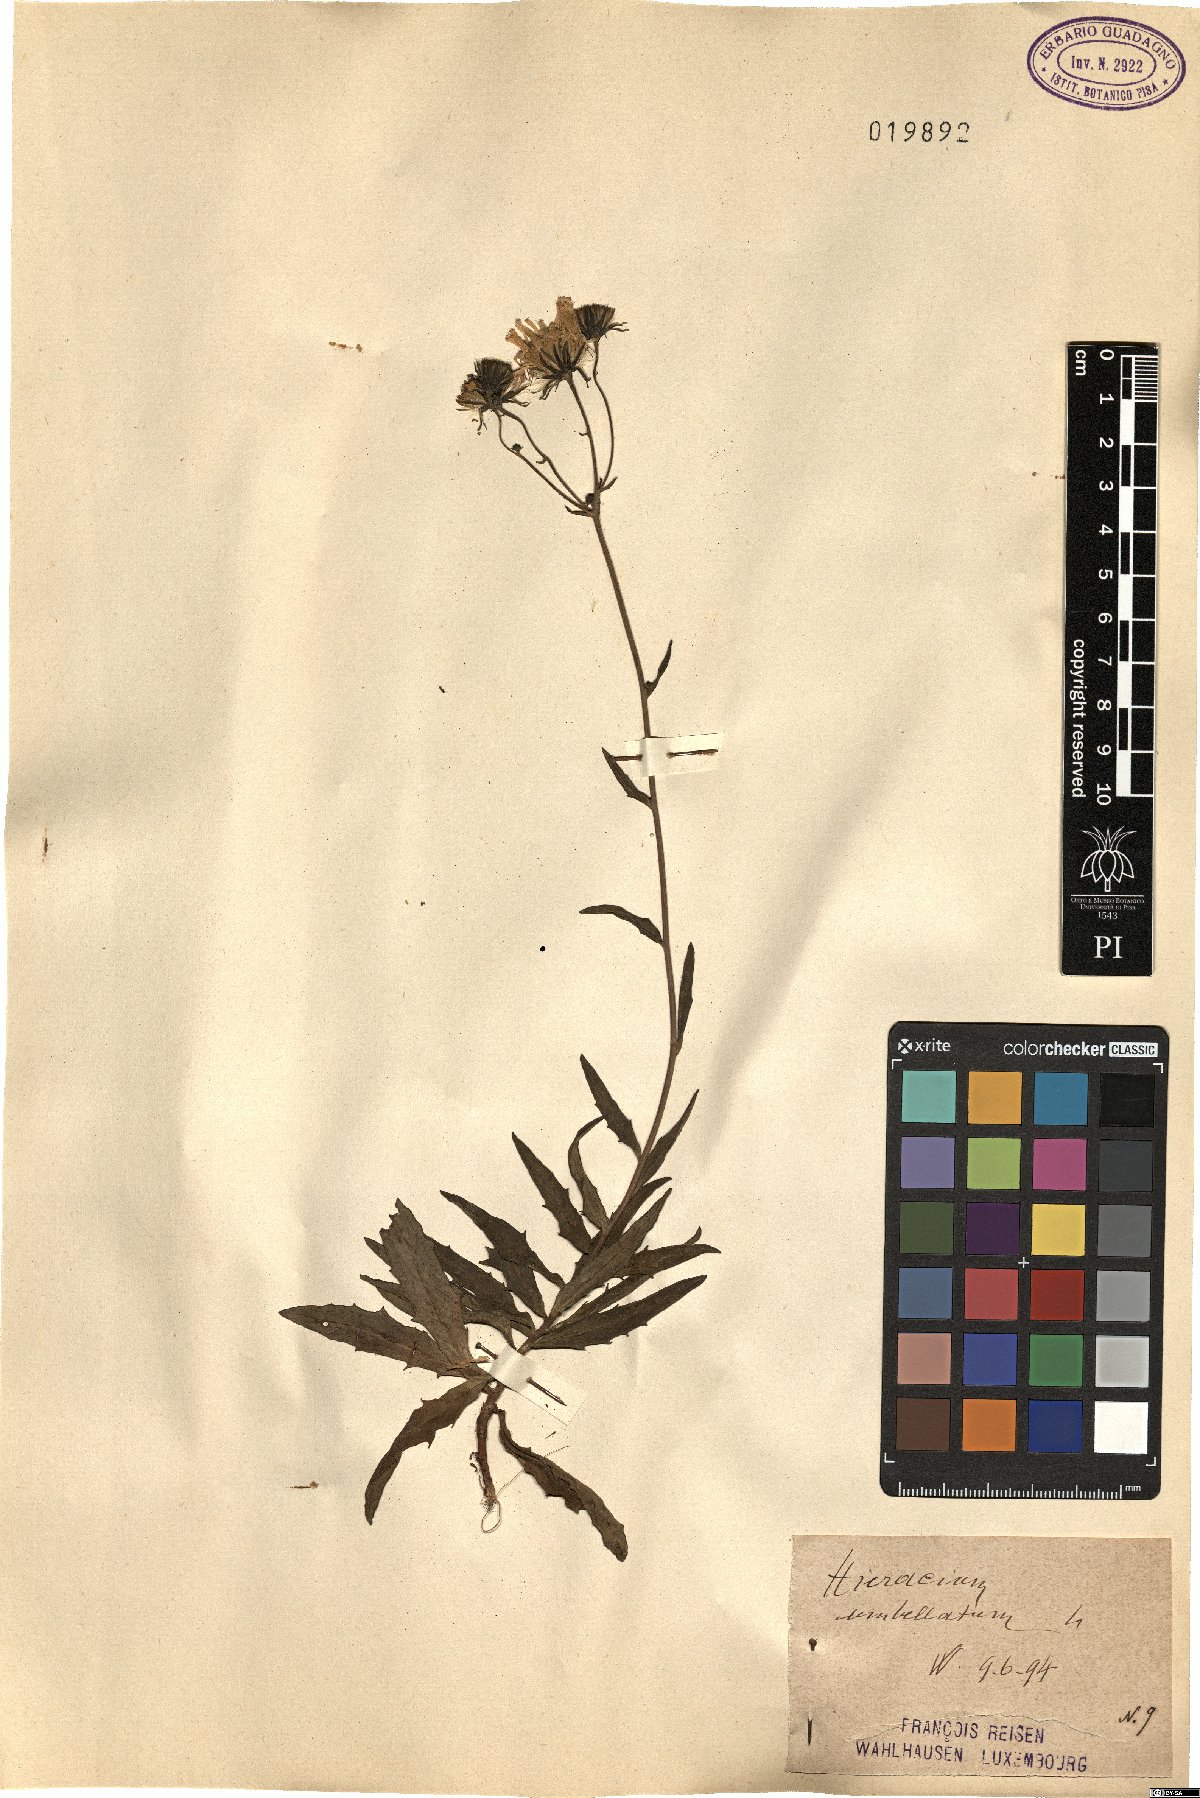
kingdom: Plantae
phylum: Tracheophyta
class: Magnoliopsida
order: Asterales
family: Asteraceae
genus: Hieracium
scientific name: Hieracium umbellatum
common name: Northern hawkweed
